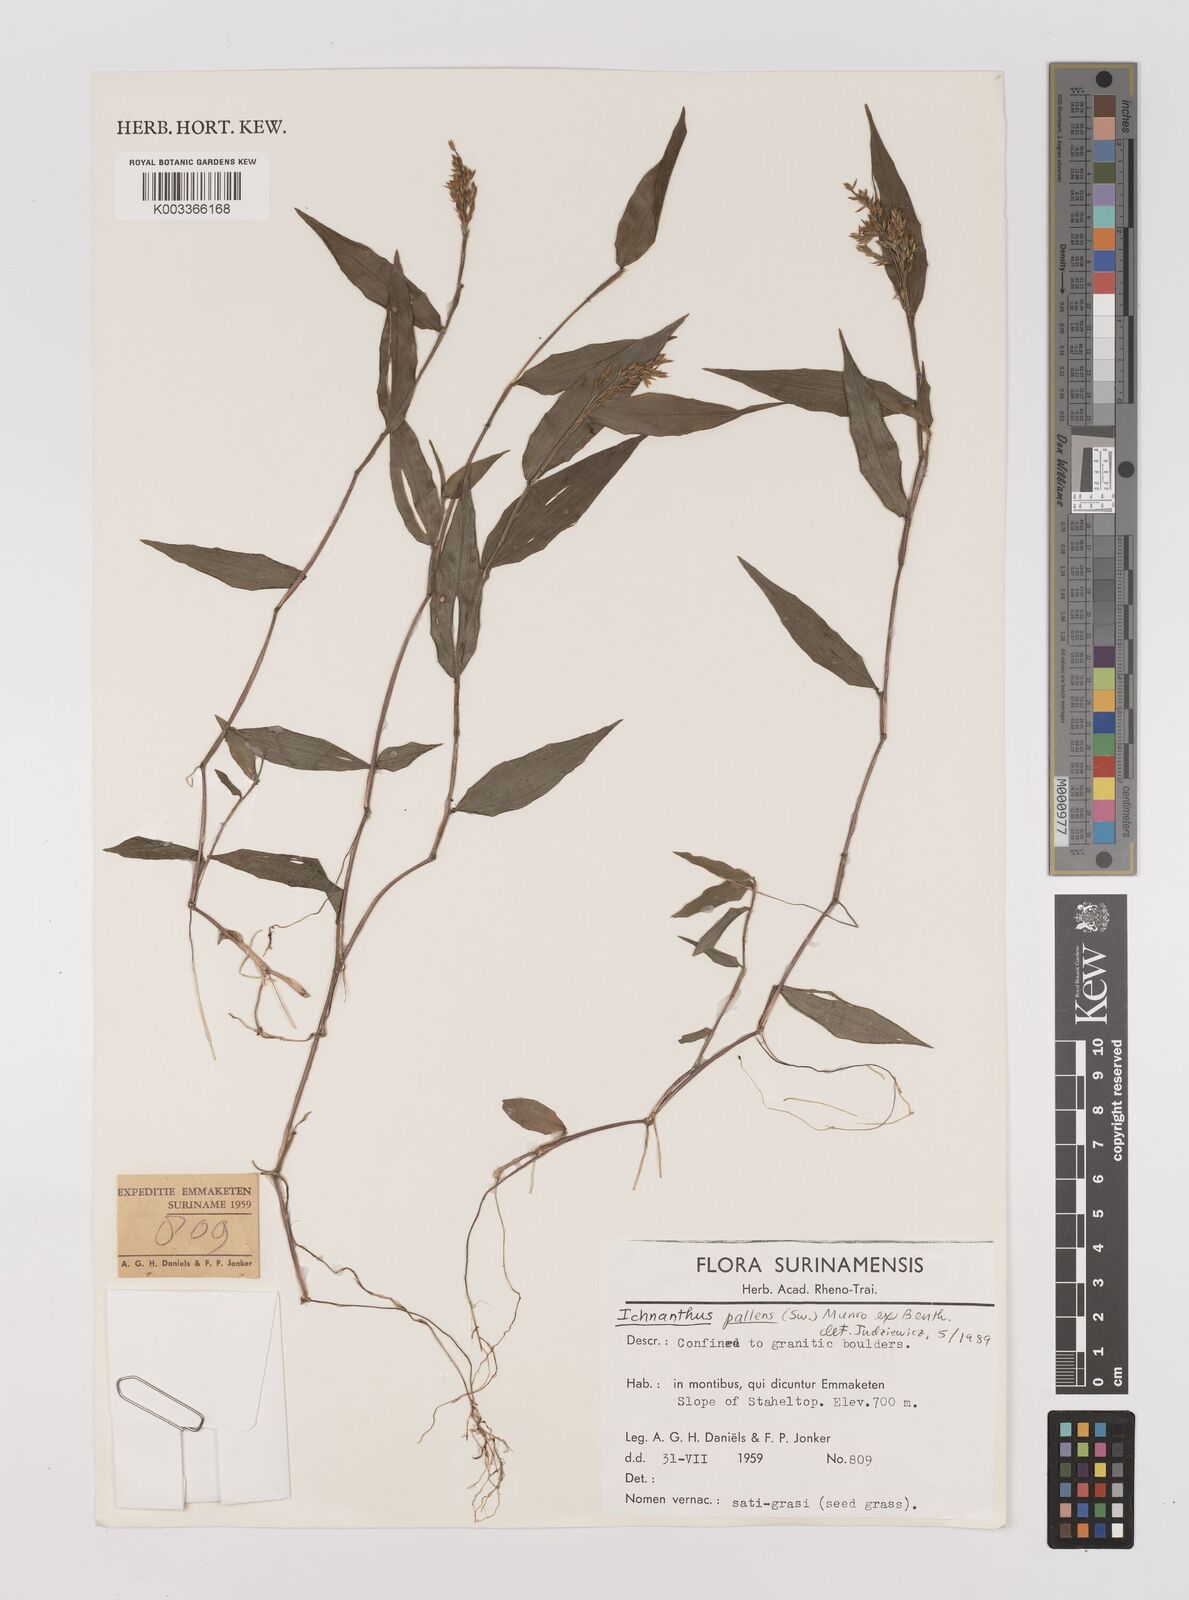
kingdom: Plantae
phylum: Tracheophyta
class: Liliopsida
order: Poales
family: Poaceae
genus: Ichnanthus
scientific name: Ichnanthus pallens
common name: Water grass
